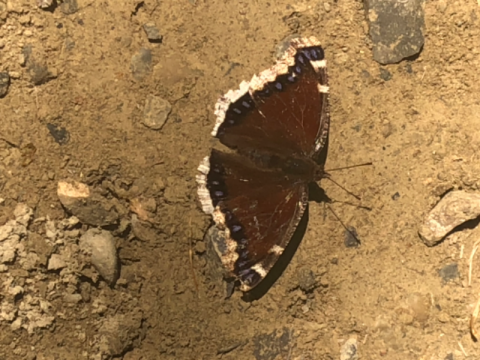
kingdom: Animalia
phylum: Arthropoda
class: Insecta
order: Lepidoptera
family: Nymphalidae
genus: Nymphalis
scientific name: Nymphalis antiopa
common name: Mourning Cloak
